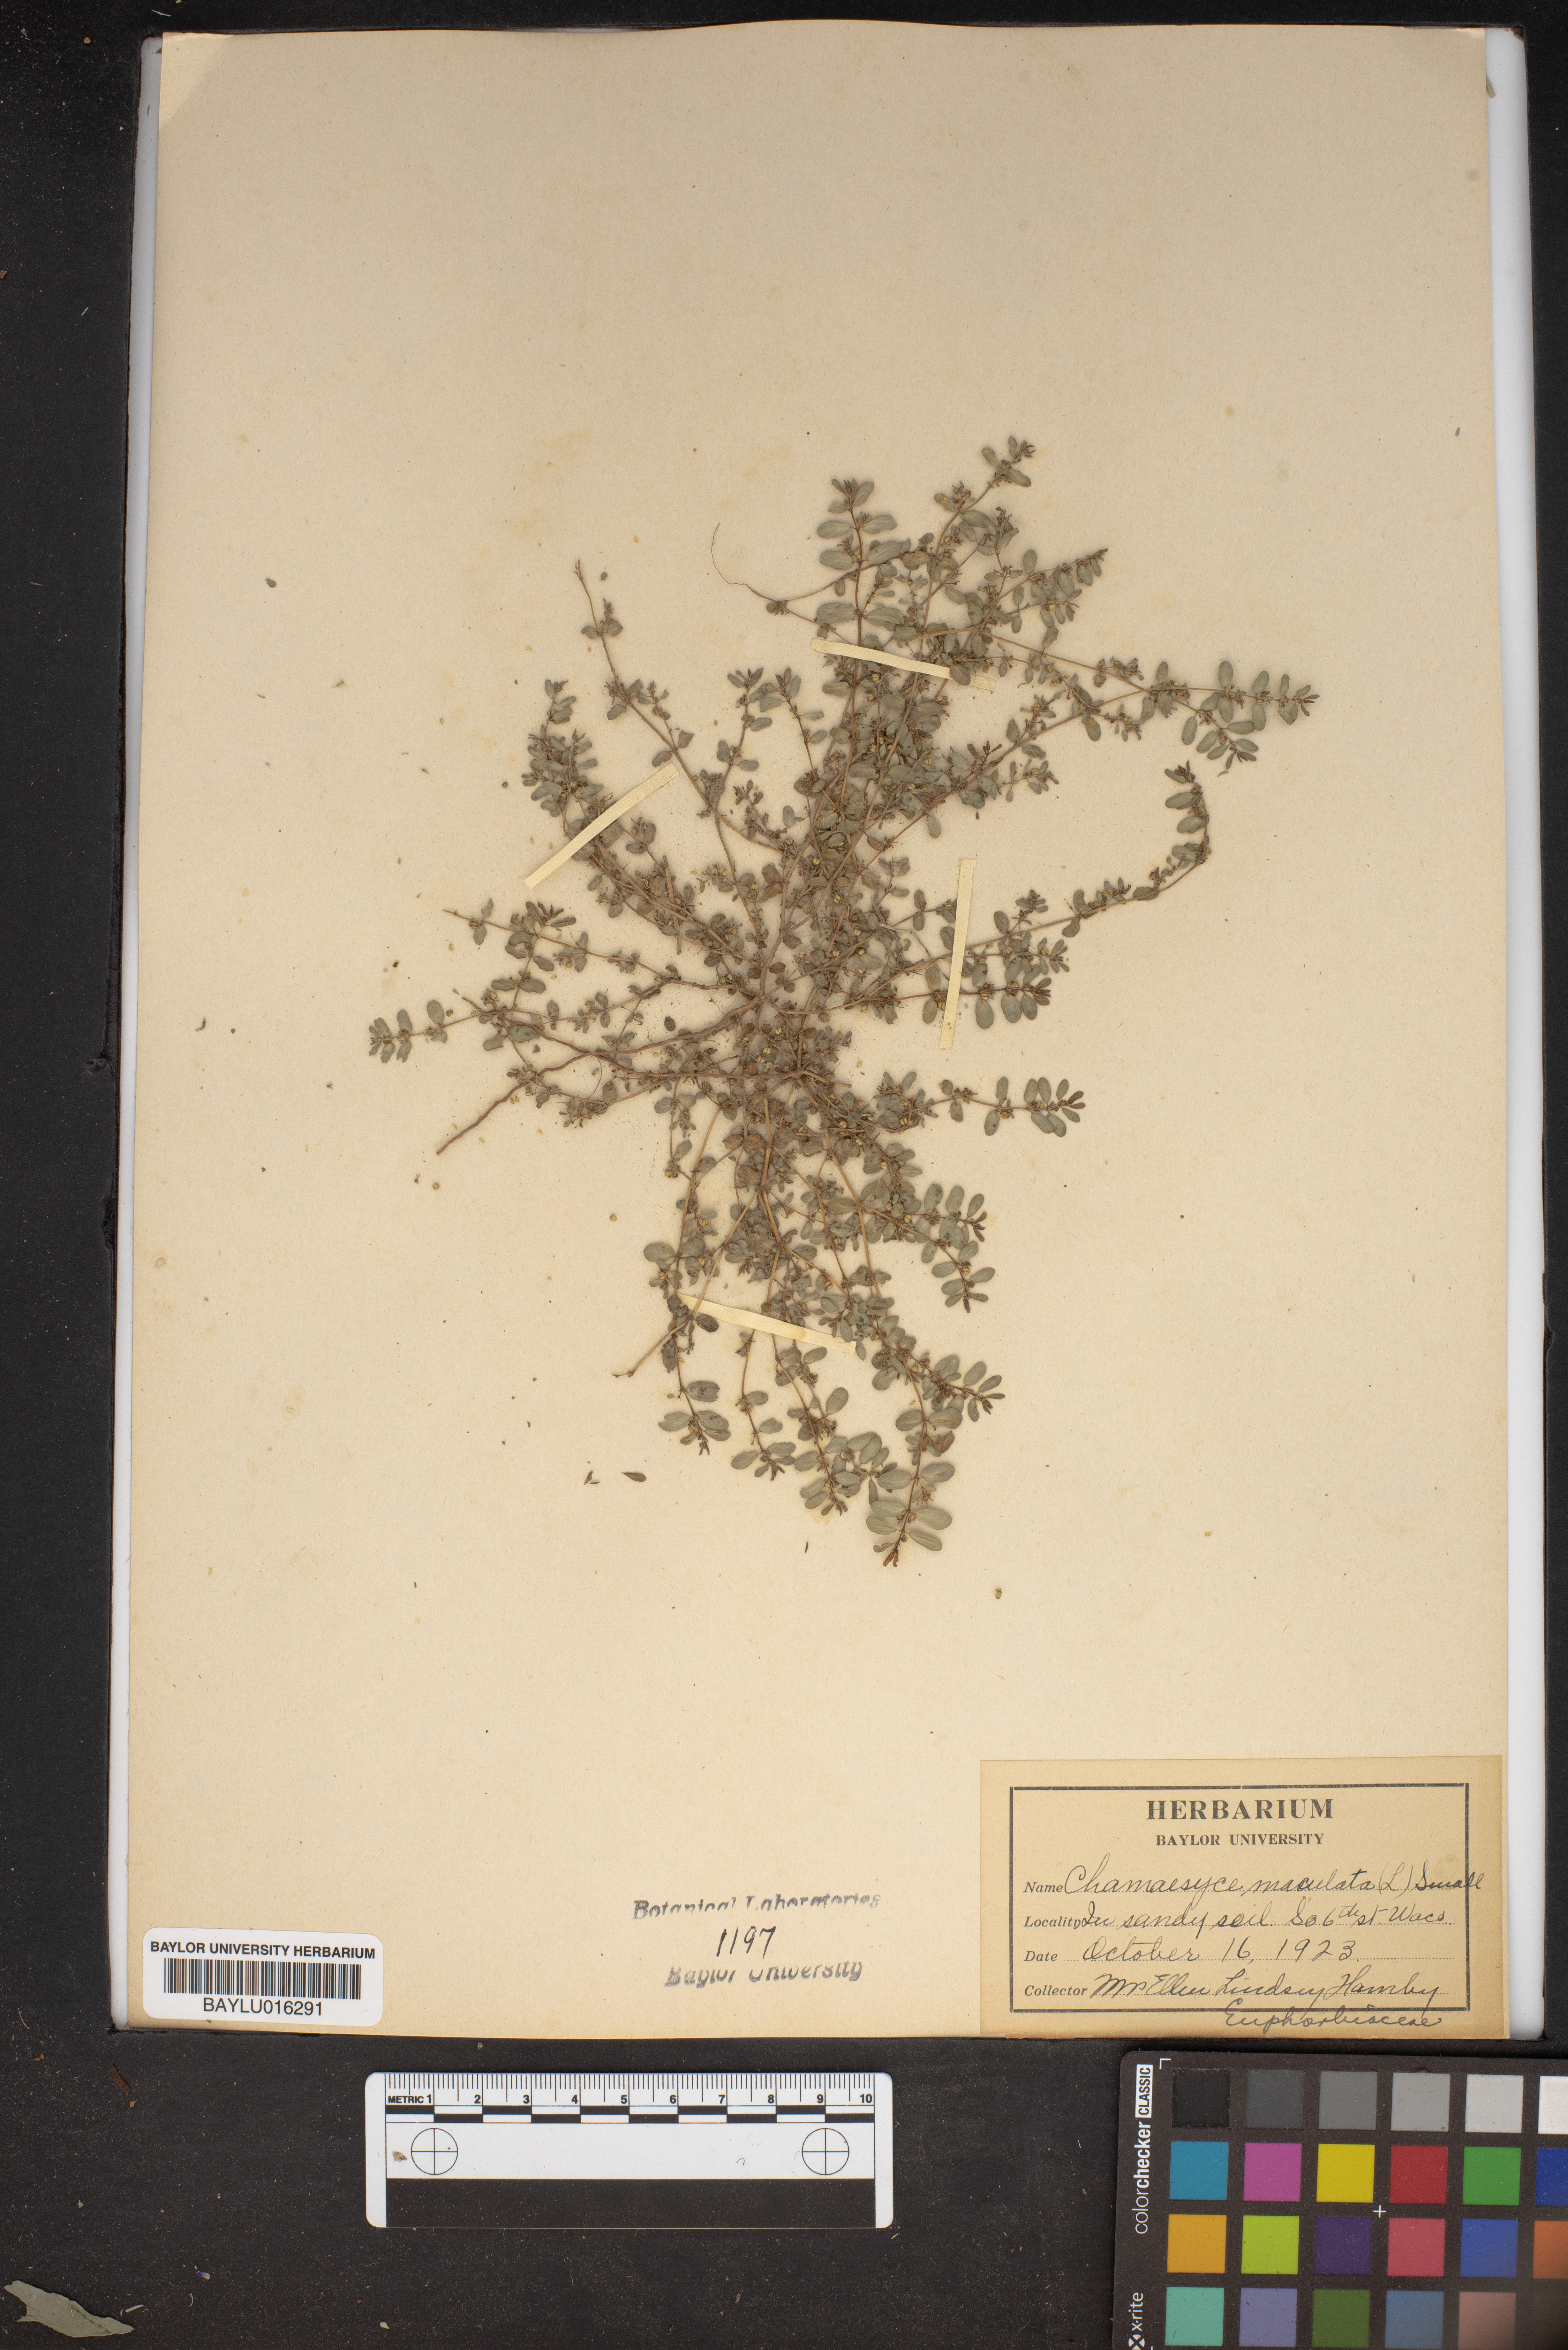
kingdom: Plantae
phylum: Tracheophyta
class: Magnoliopsida
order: Malpighiales
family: Euphorbiaceae
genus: Euphorbia
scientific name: Euphorbia maculata
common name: Spotted spurge
